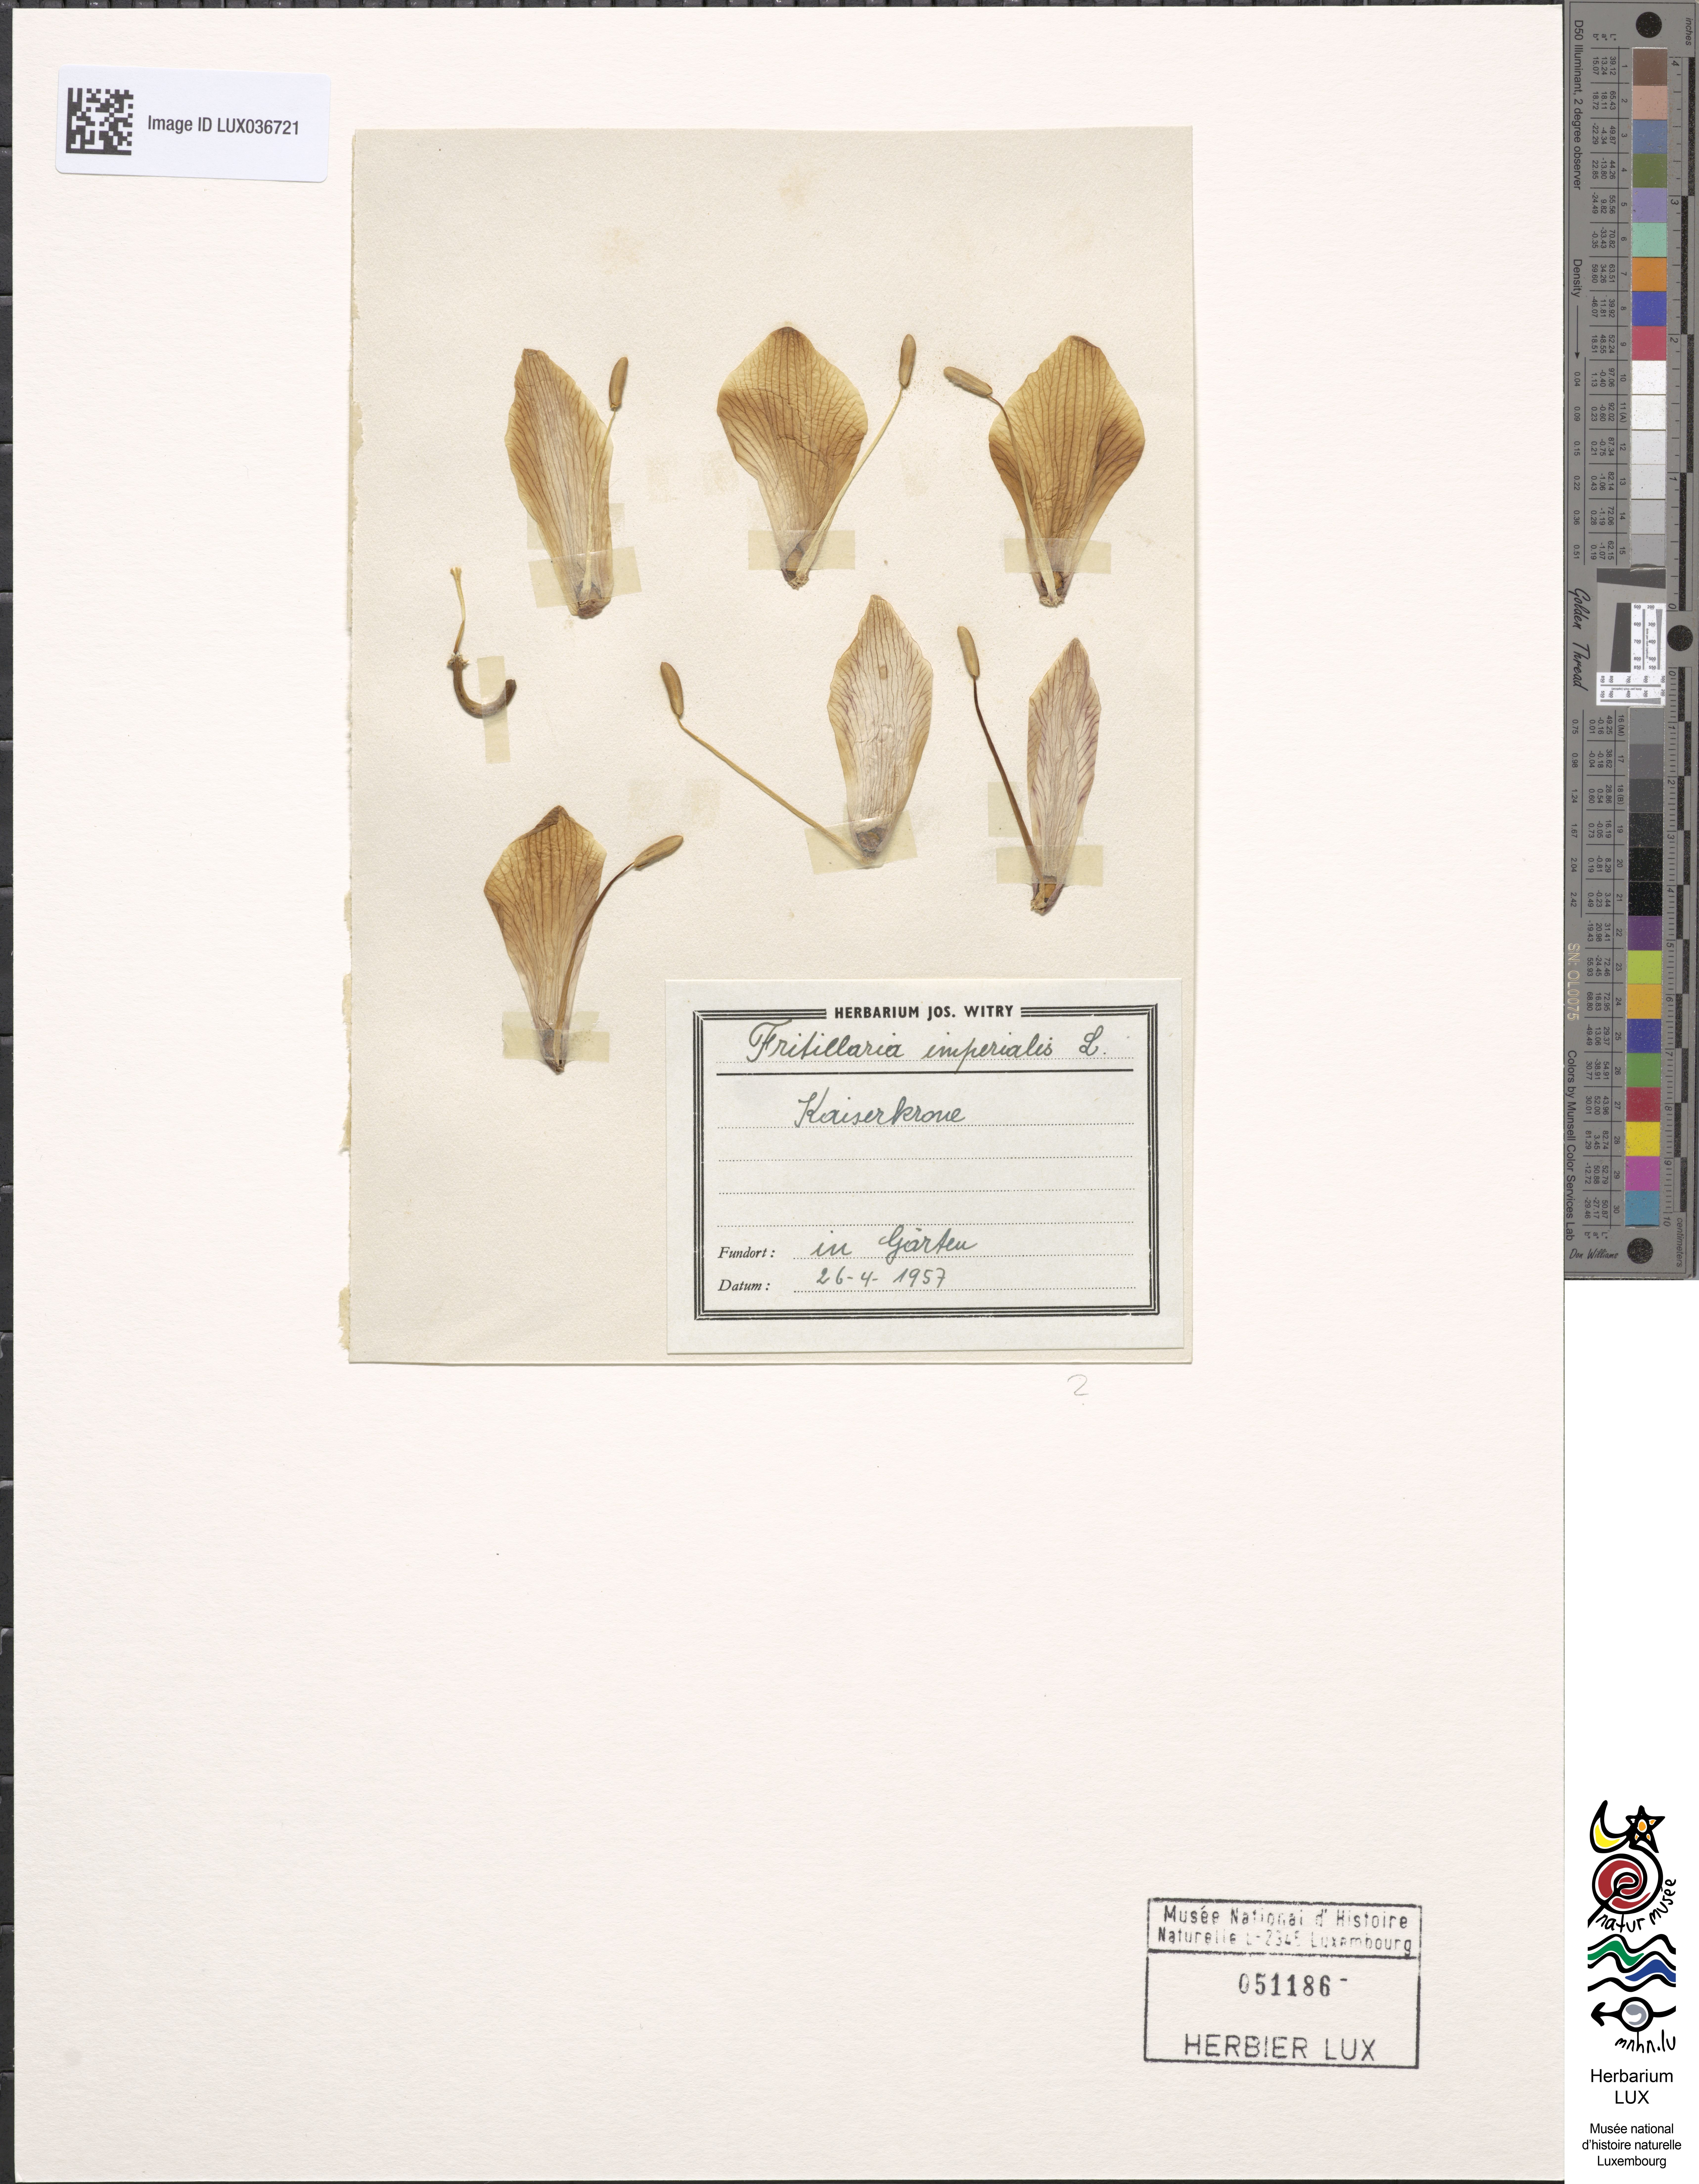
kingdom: Plantae
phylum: Tracheophyta
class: Liliopsida
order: Liliales
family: Liliaceae
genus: Fritillaria
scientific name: Fritillaria imperialis
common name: Imperial fritillary
